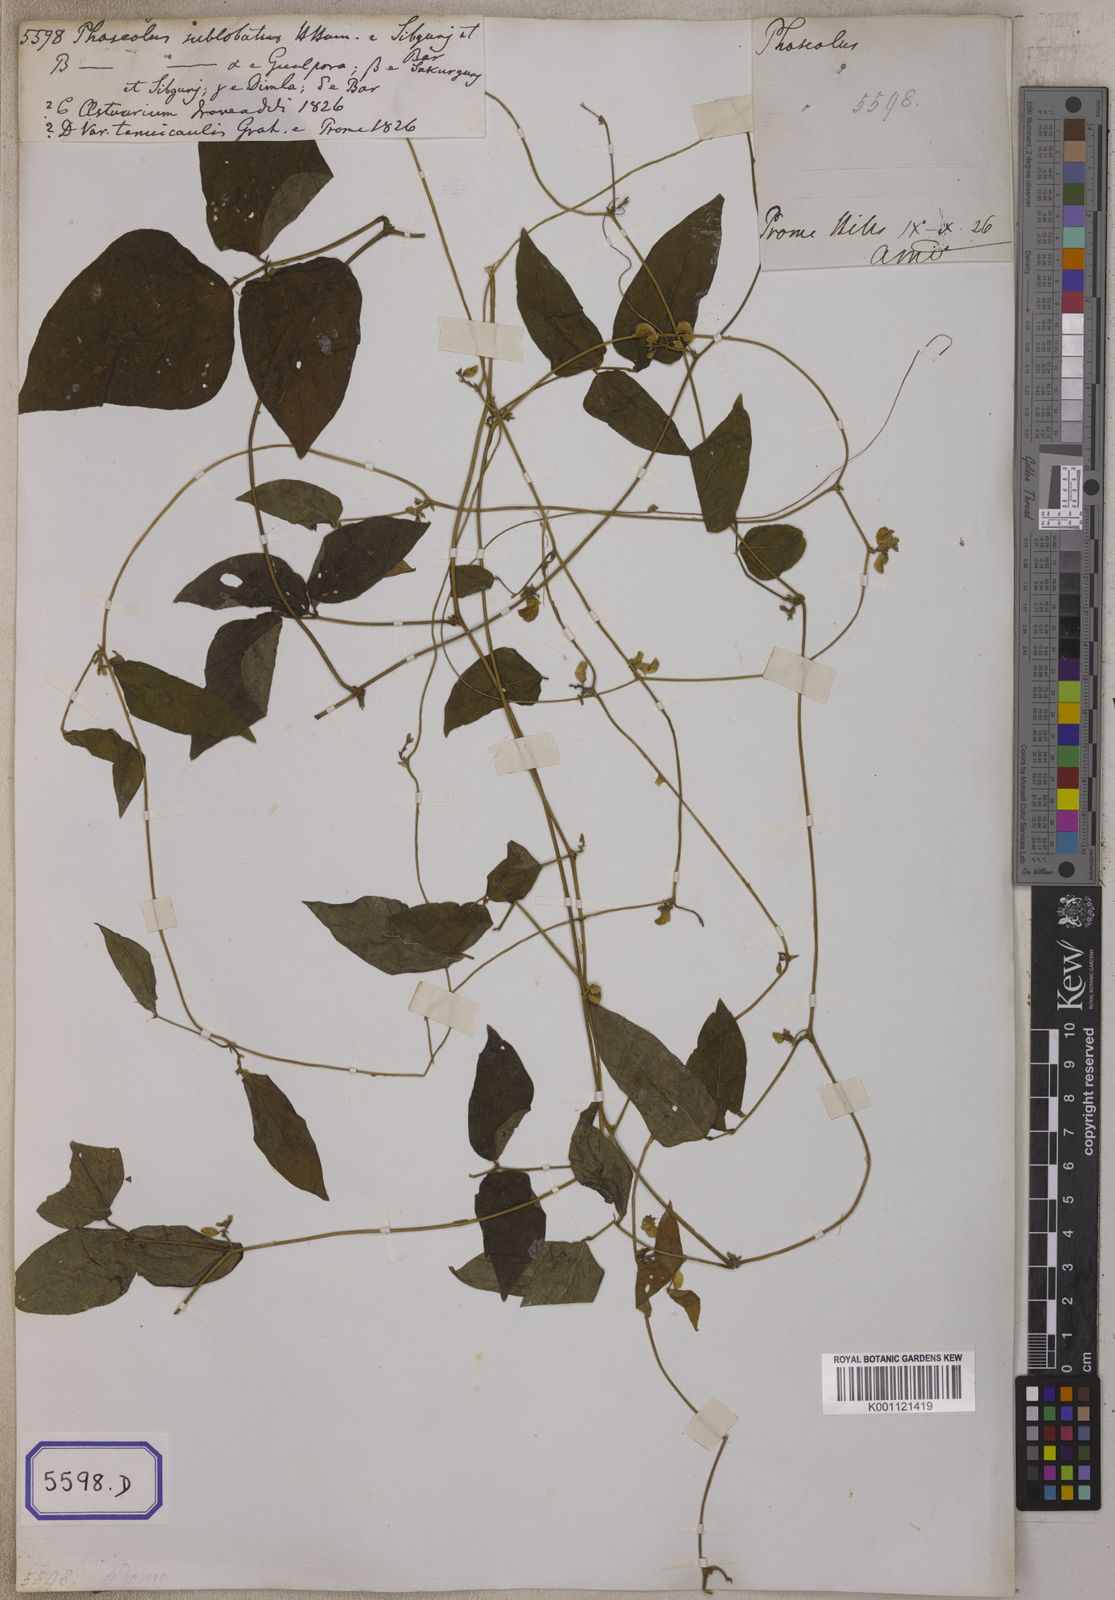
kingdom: Plantae
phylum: Tracheophyta
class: Magnoliopsida
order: Fabales
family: Fabaceae
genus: Phaseolus
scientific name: Phaseolus
